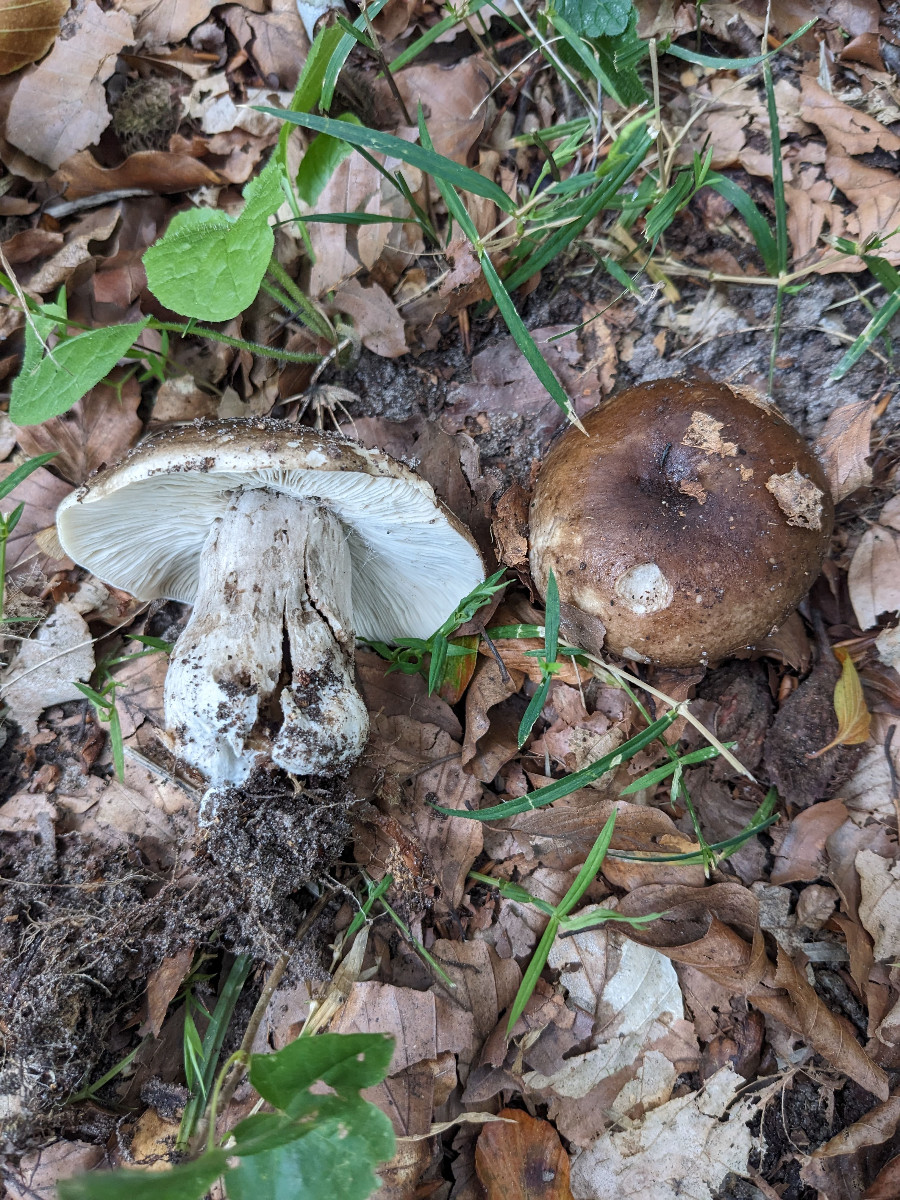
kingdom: Fungi
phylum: Basidiomycota
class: Agaricomycetes
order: Russulales
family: Russulaceae
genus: Russula
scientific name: Russula
